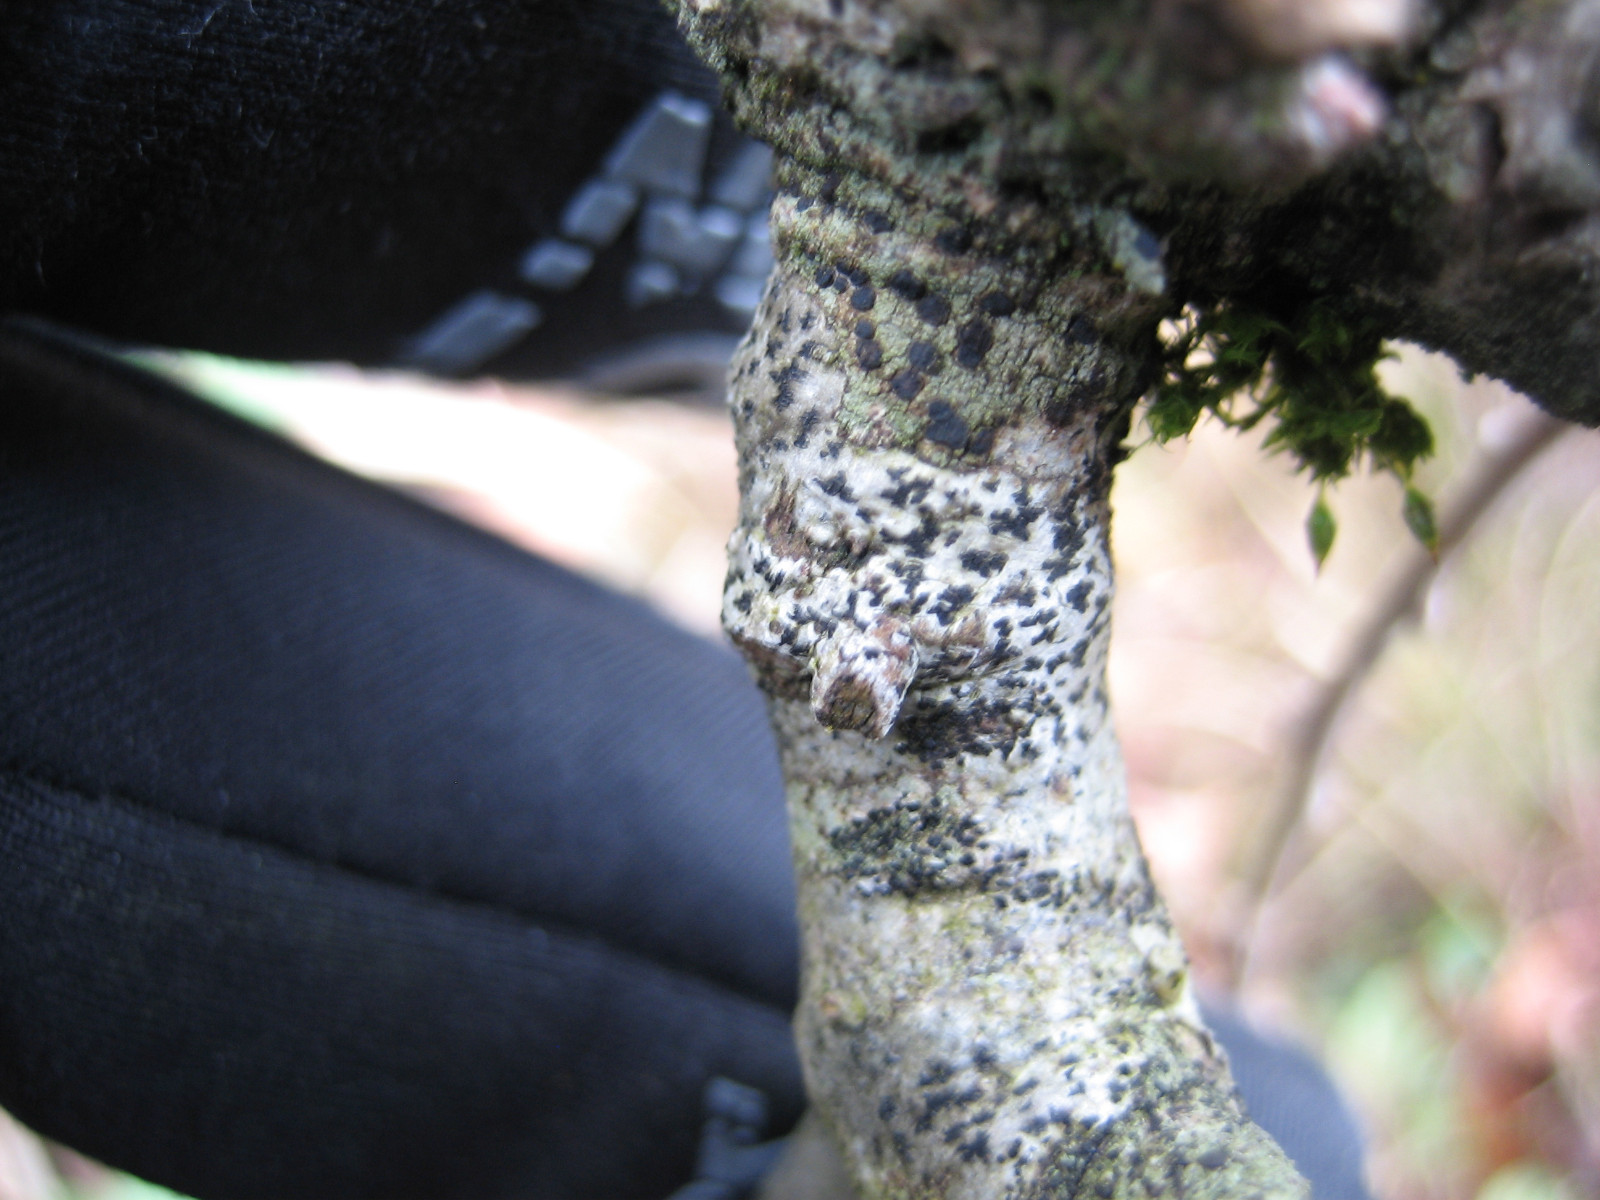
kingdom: Fungi
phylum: Ascomycota
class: Arthoniomycetes
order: Arthoniales
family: Arthoniaceae
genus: Arthonia
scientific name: Arthonia radiata
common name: stjerne-pletlav
